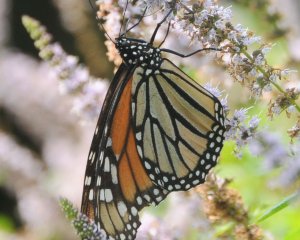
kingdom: Animalia
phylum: Arthropoda
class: Insecta
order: Lepidoptera
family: Nymphalidae
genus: Danaus
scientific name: Danaus plexippus
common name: Monarch
